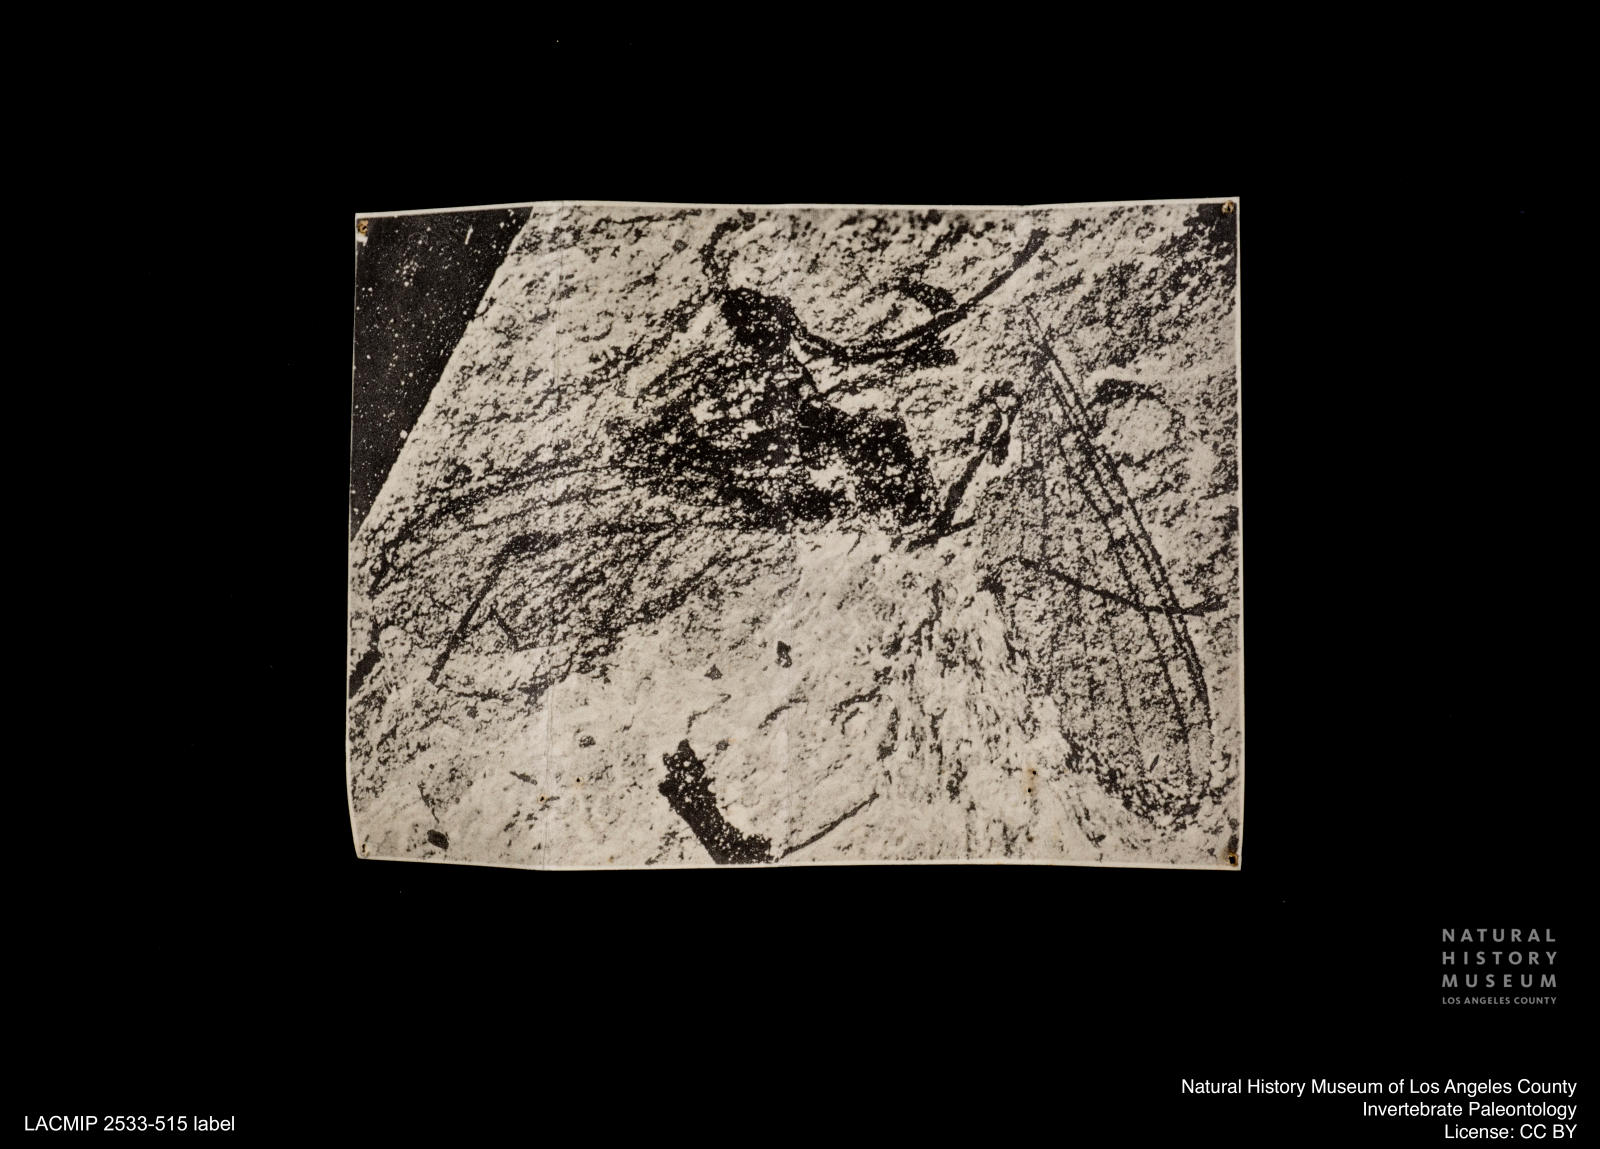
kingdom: Animalia
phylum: Arthropoda
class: Insecta
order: Diptera
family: Mycetophilidae
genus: Boletina
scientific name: Boletina brunnescens
